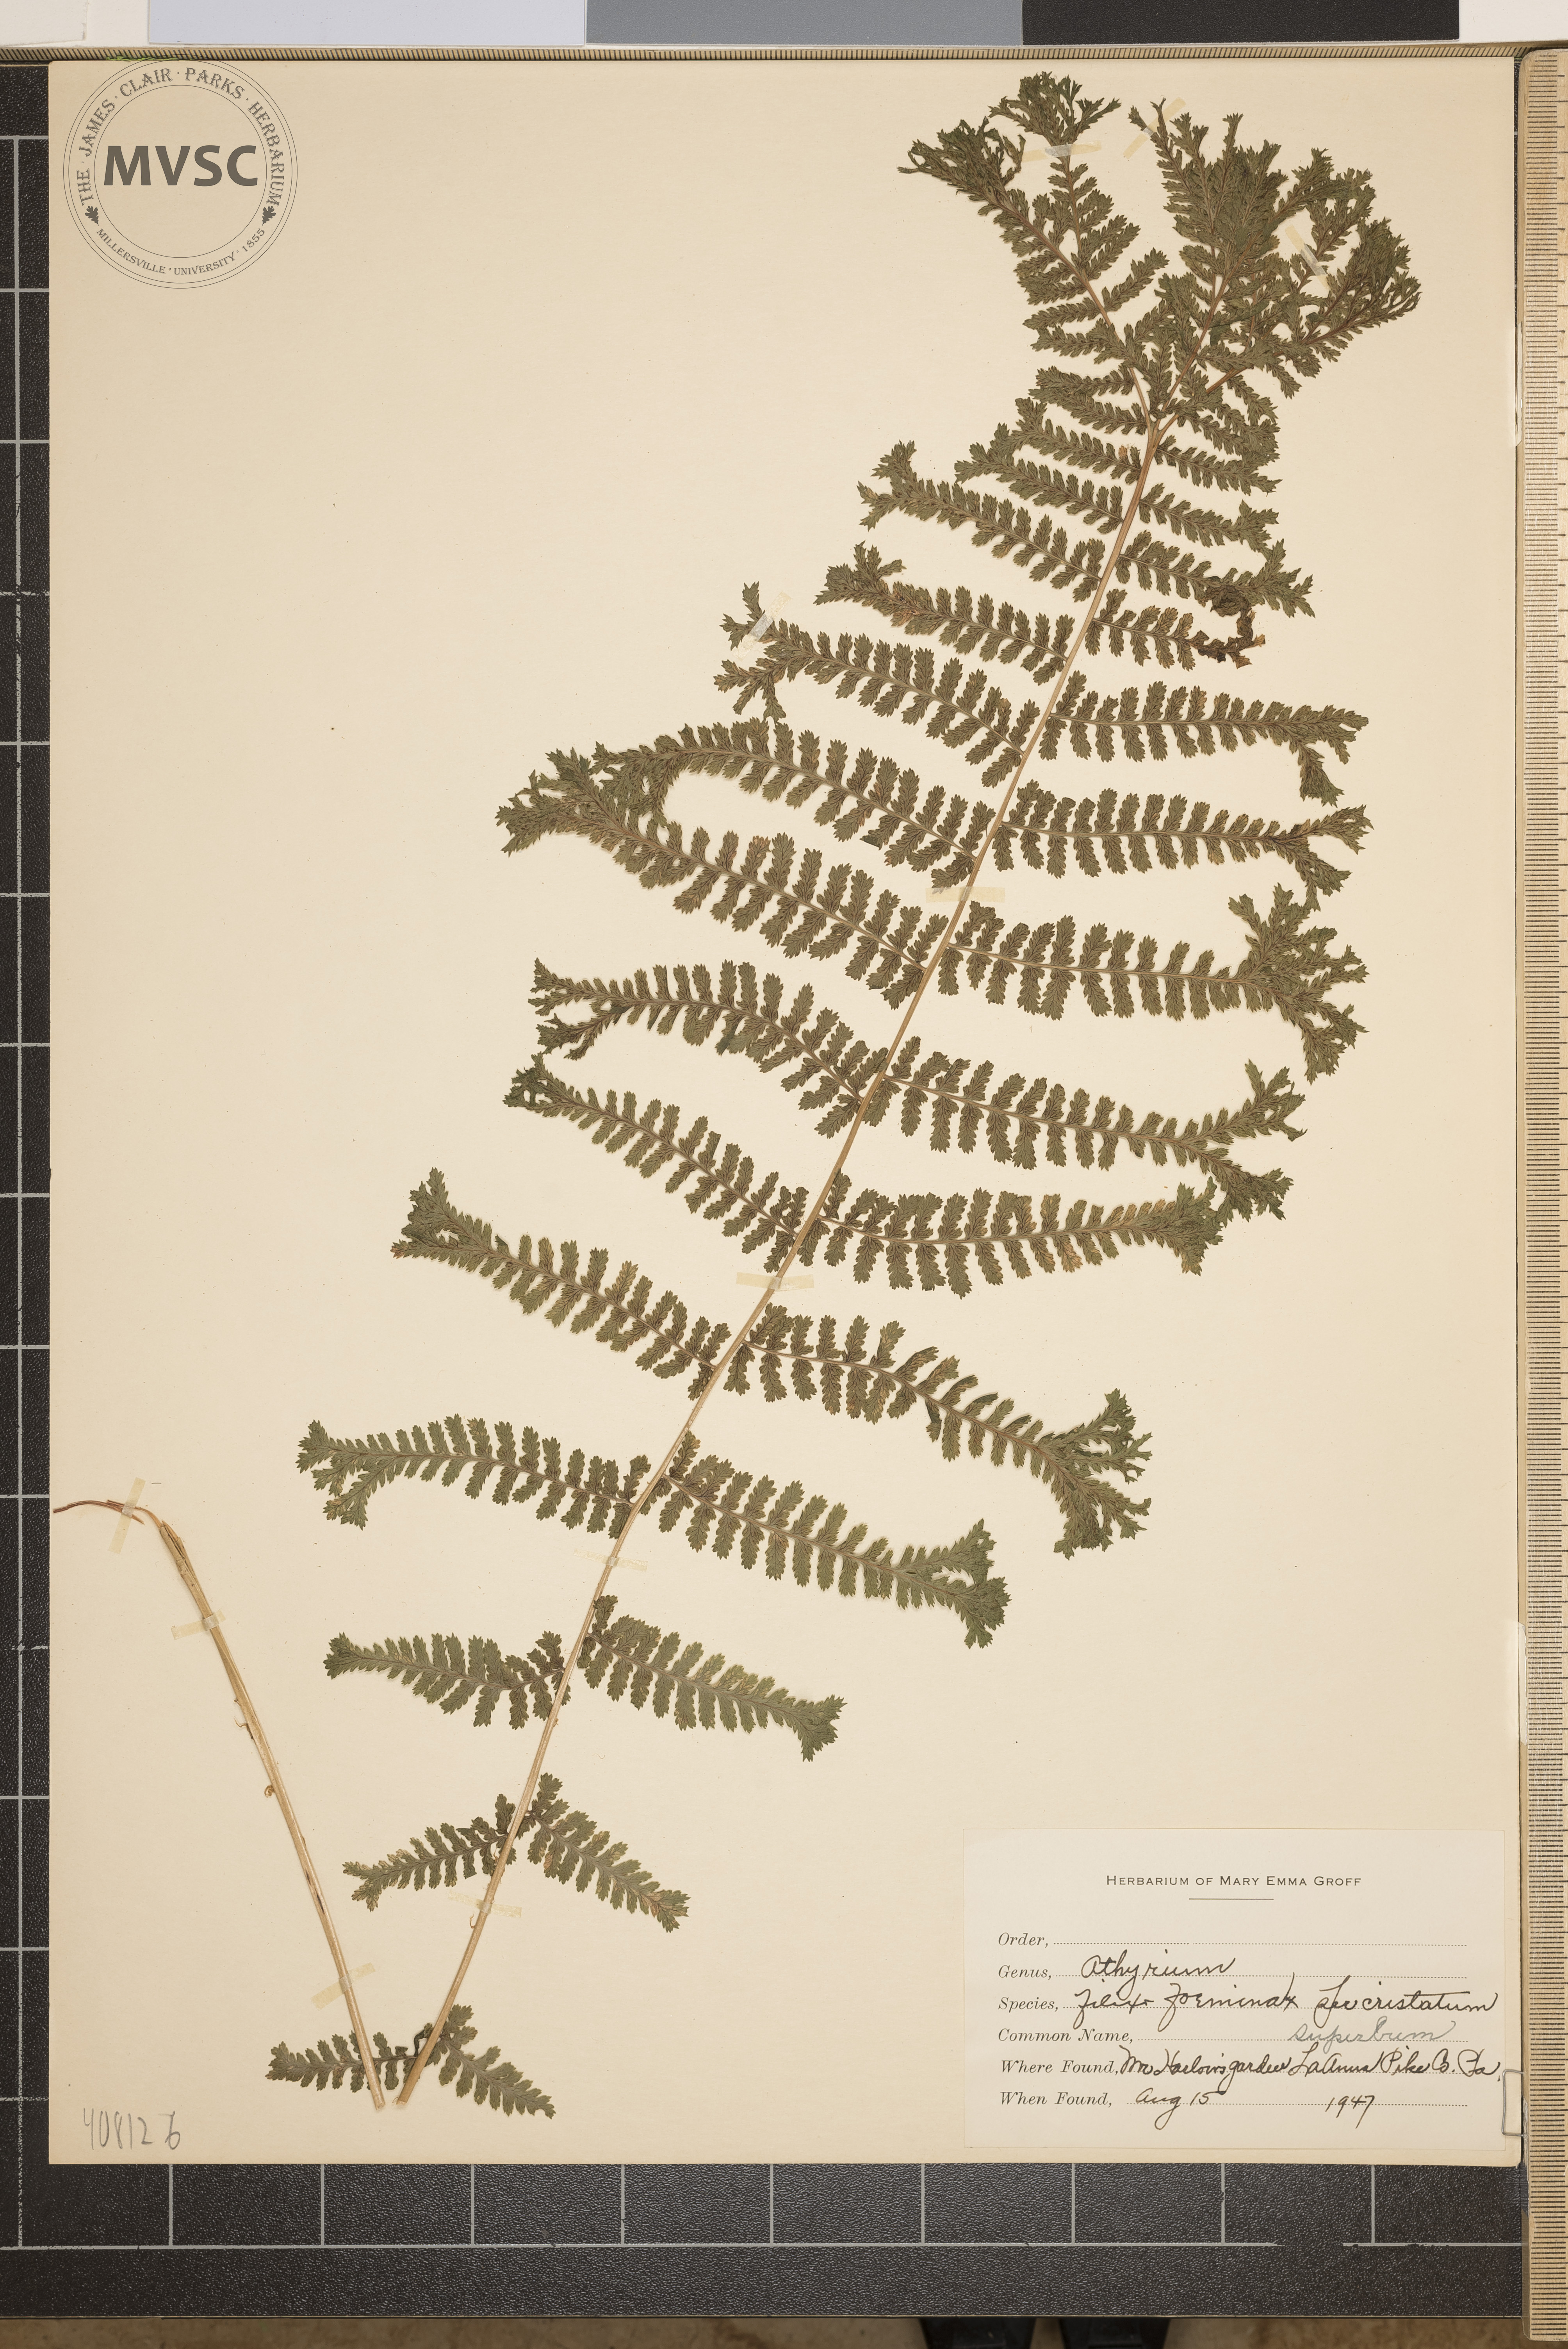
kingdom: Plantae
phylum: Tracheophyta
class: Polypodiopsida
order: Polypodiales
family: Athyriaceae
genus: Athyrium
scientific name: Athyrium filix-femina
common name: Lady fern
